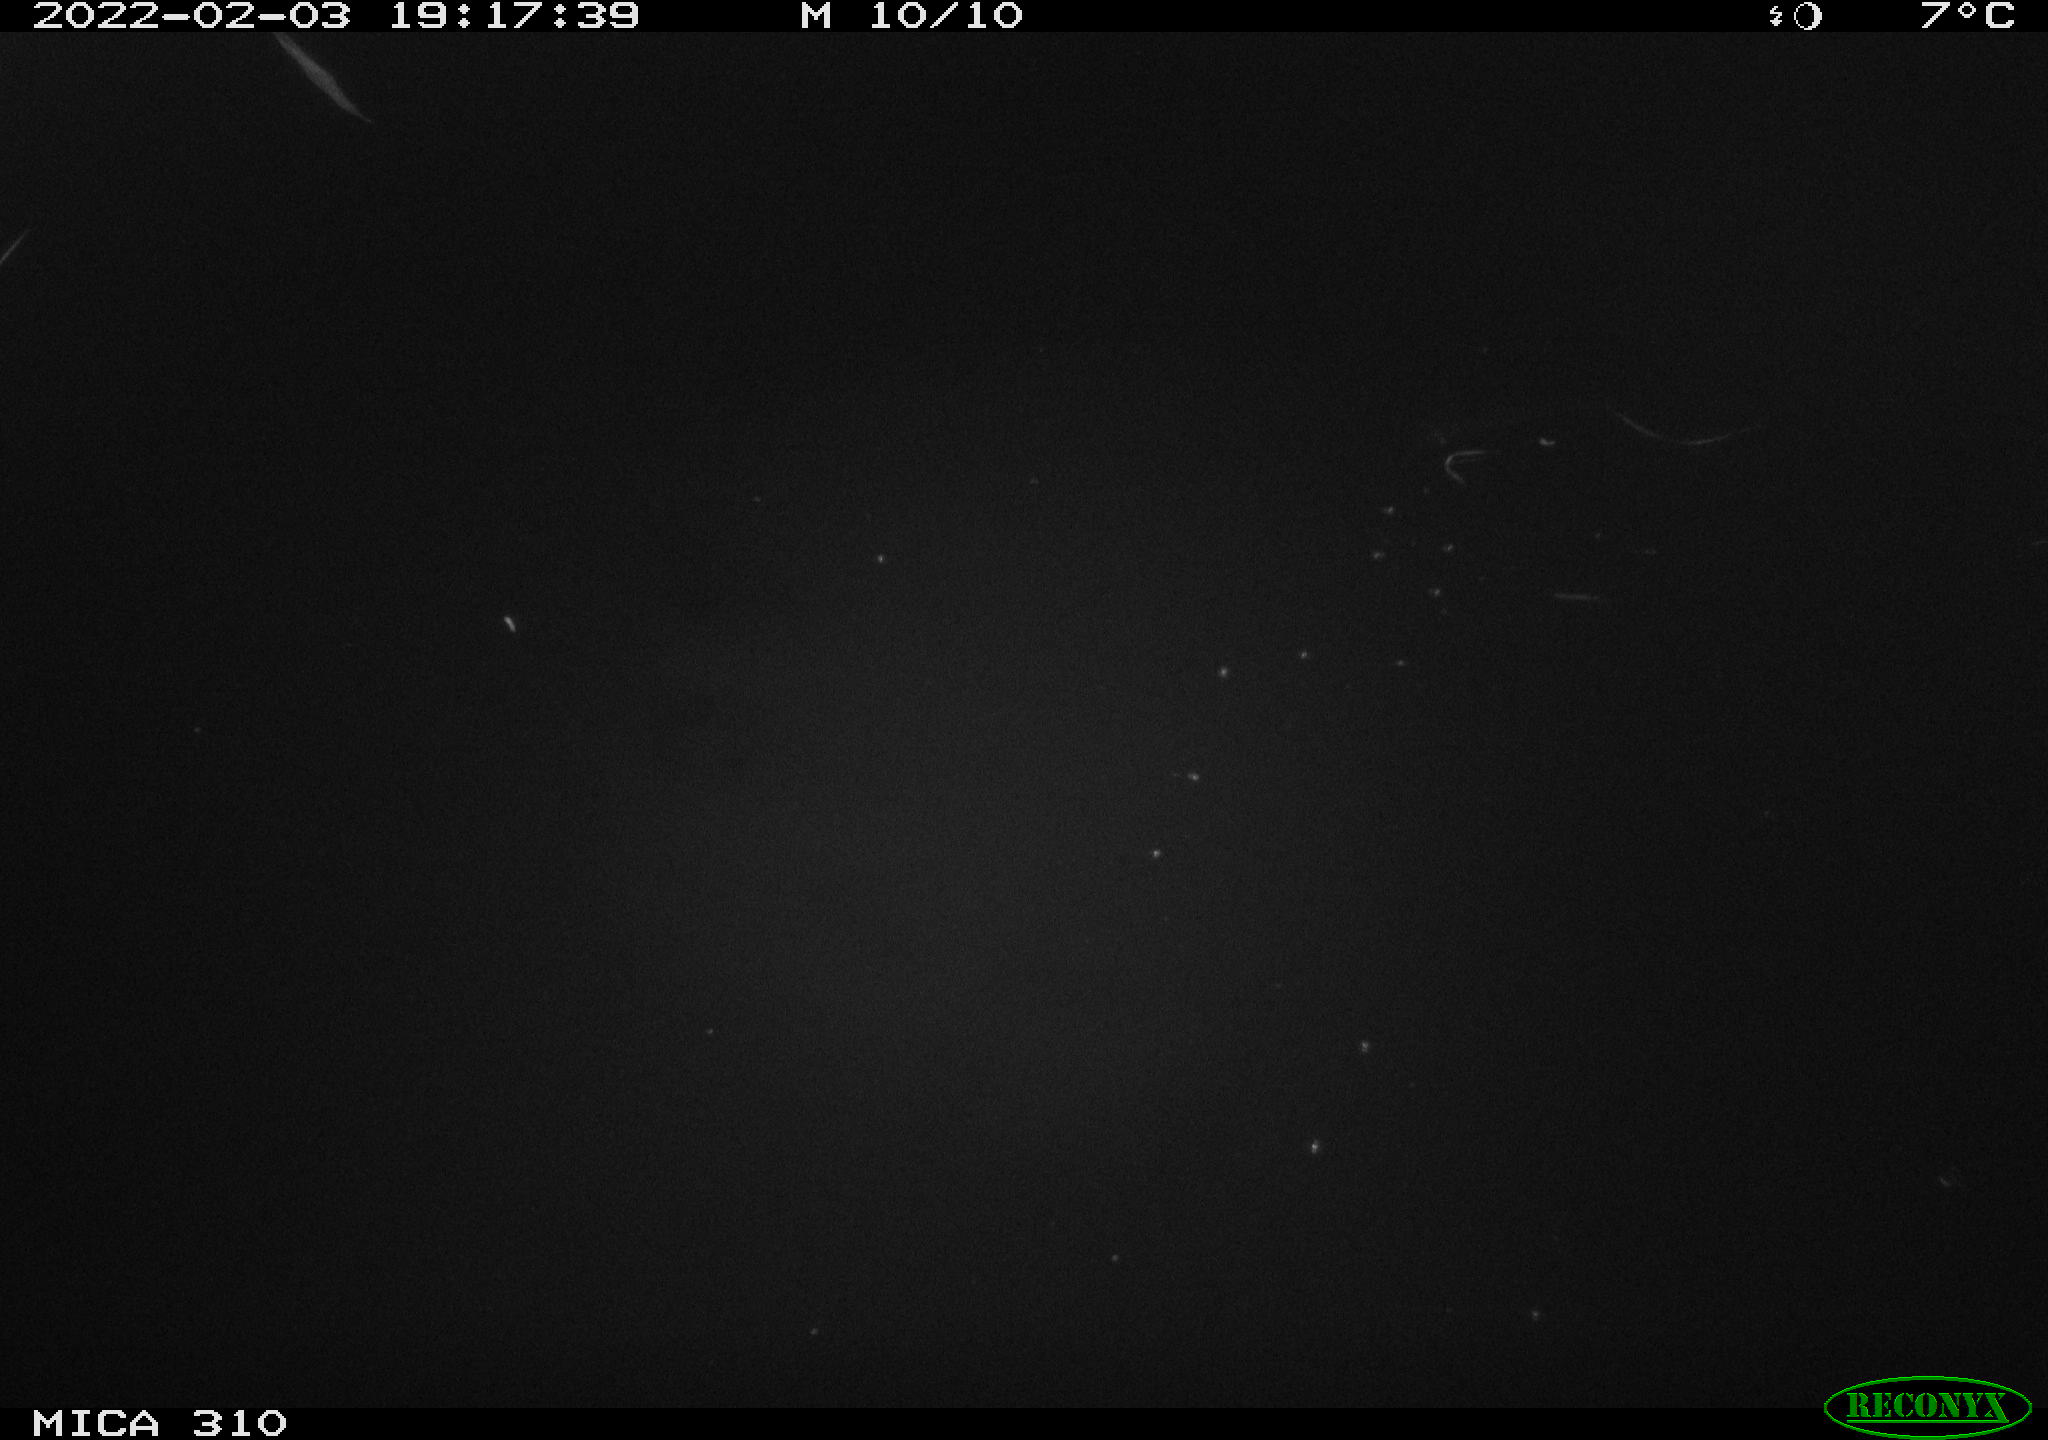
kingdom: Animalia
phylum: Chordata
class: Mammalia
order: Rodentia
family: Cricetidae
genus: Ondatra
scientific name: Ondatra zibethicus
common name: Muskrat
